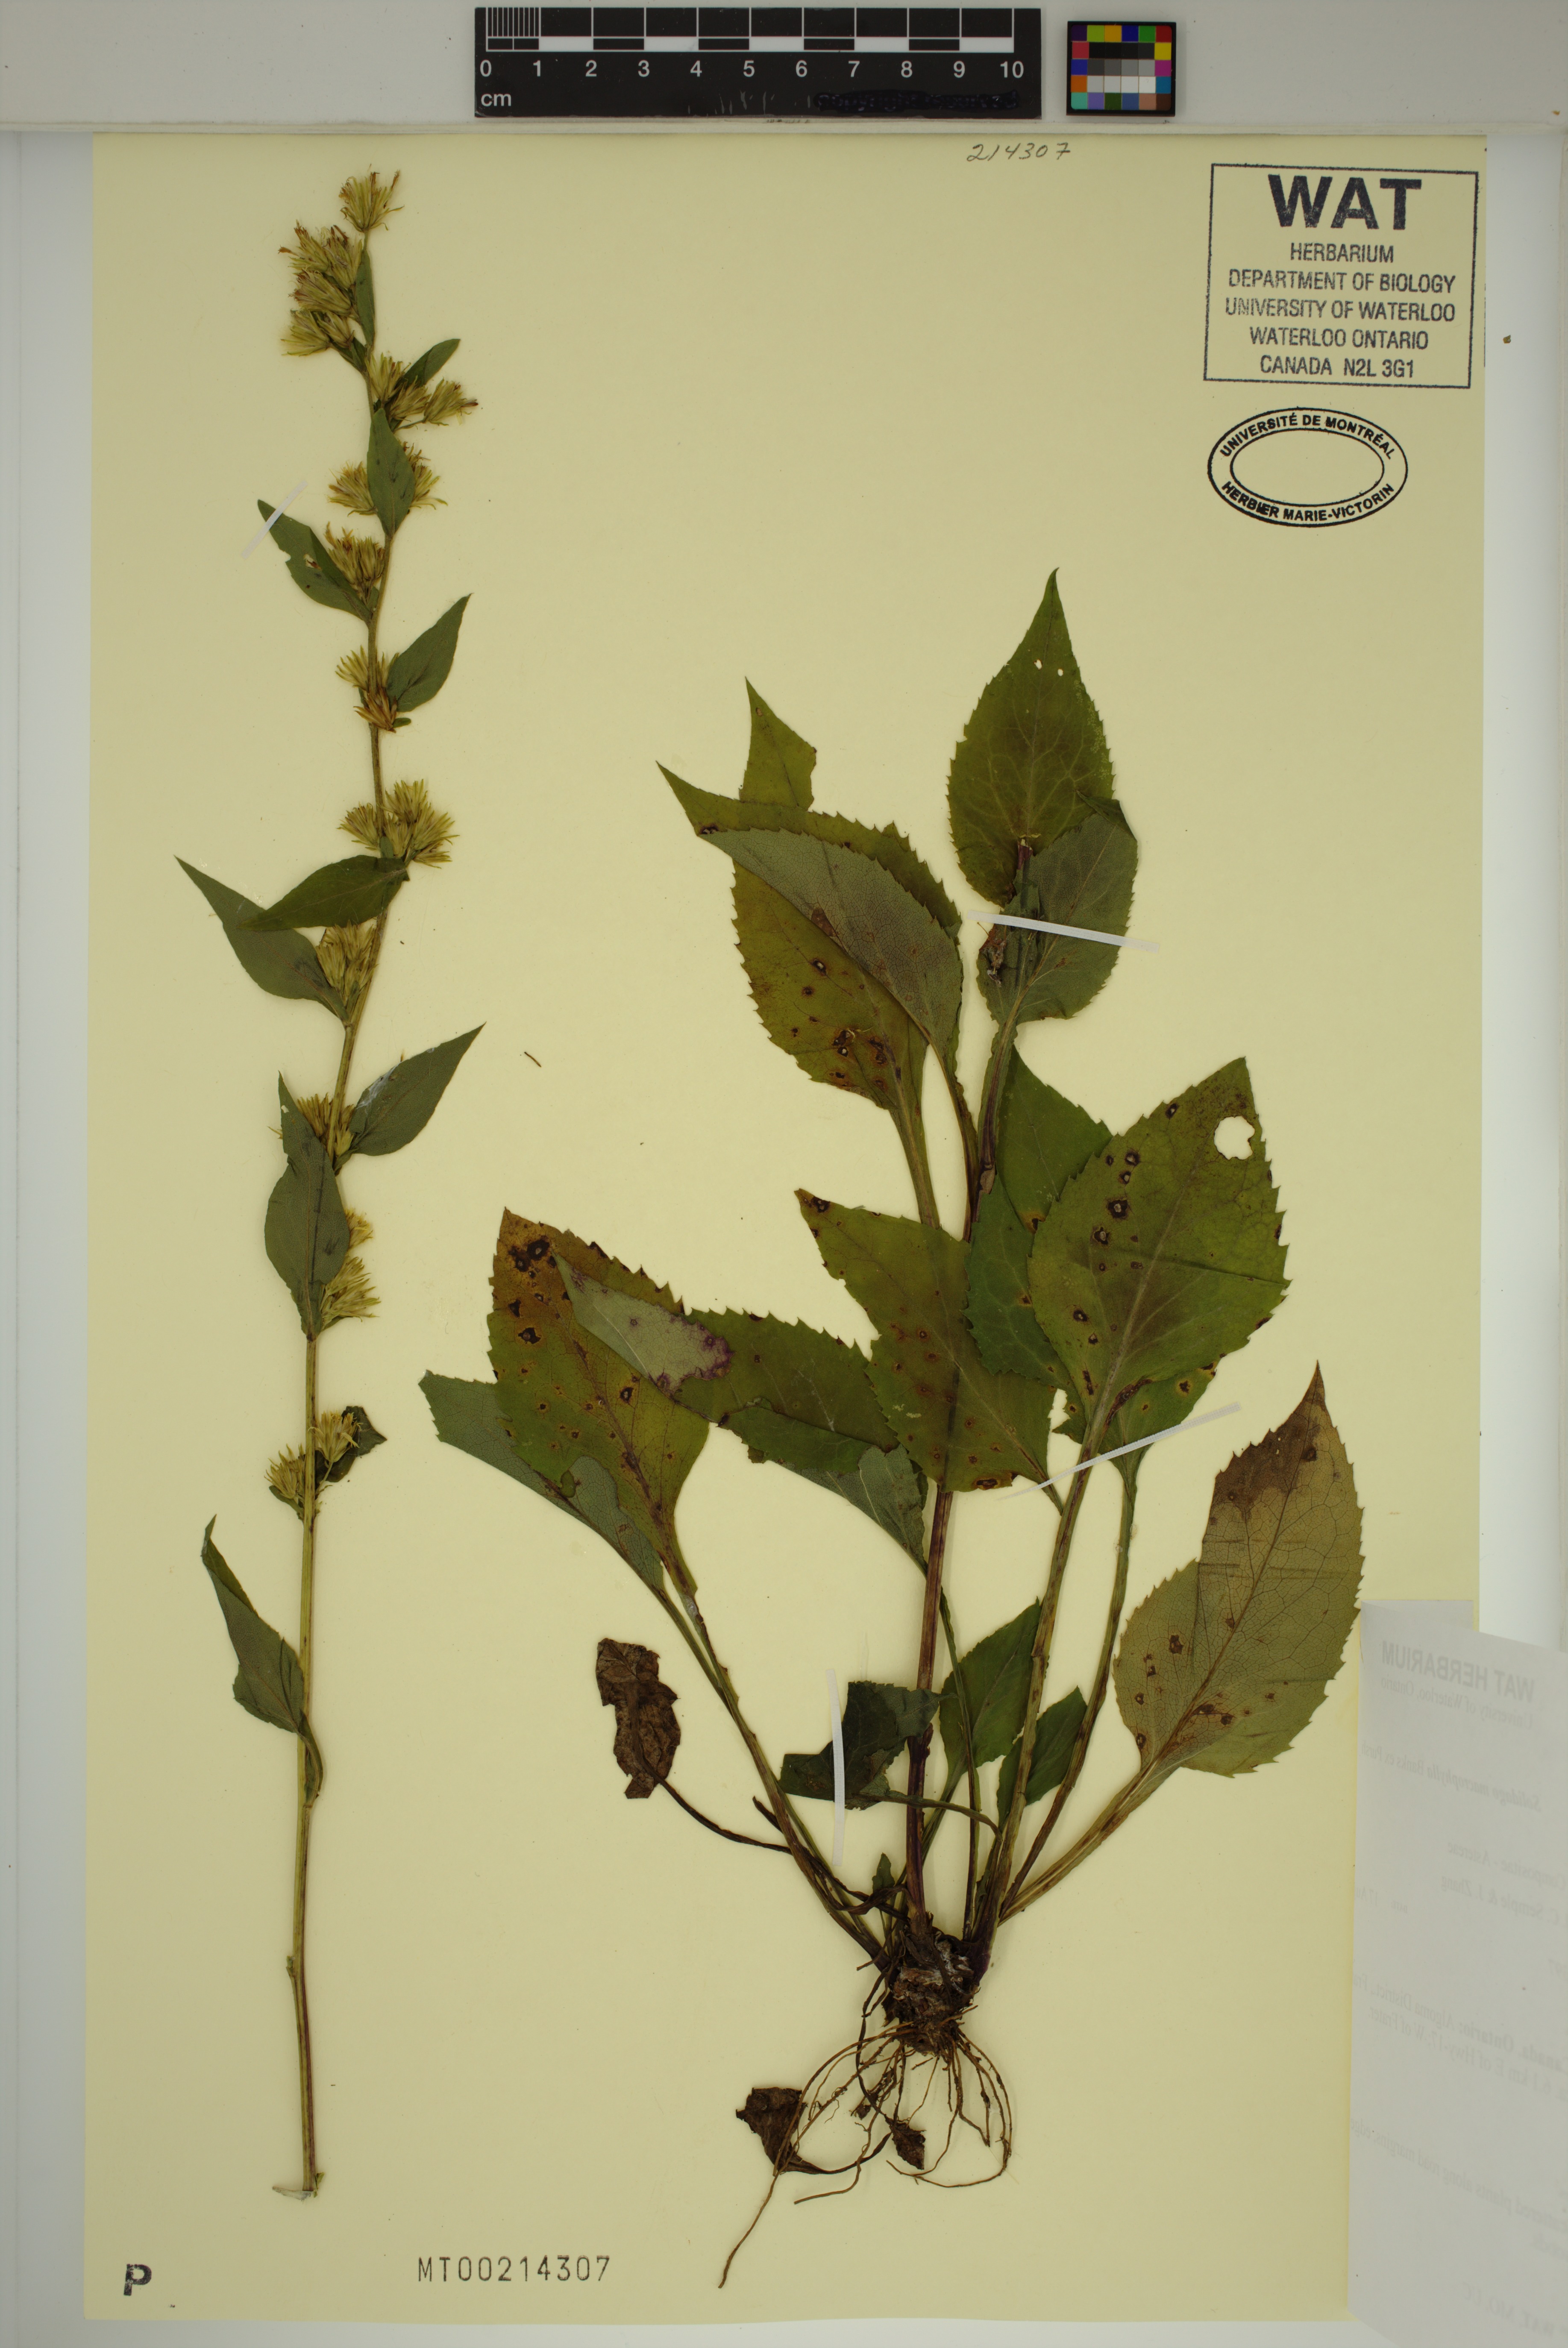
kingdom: Plantae
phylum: Tracheophyta
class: Magnoliopsida
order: Asterales
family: Asteraceae
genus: Solidago
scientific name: Solidago macrophylla
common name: Large-leaved goldenrod
